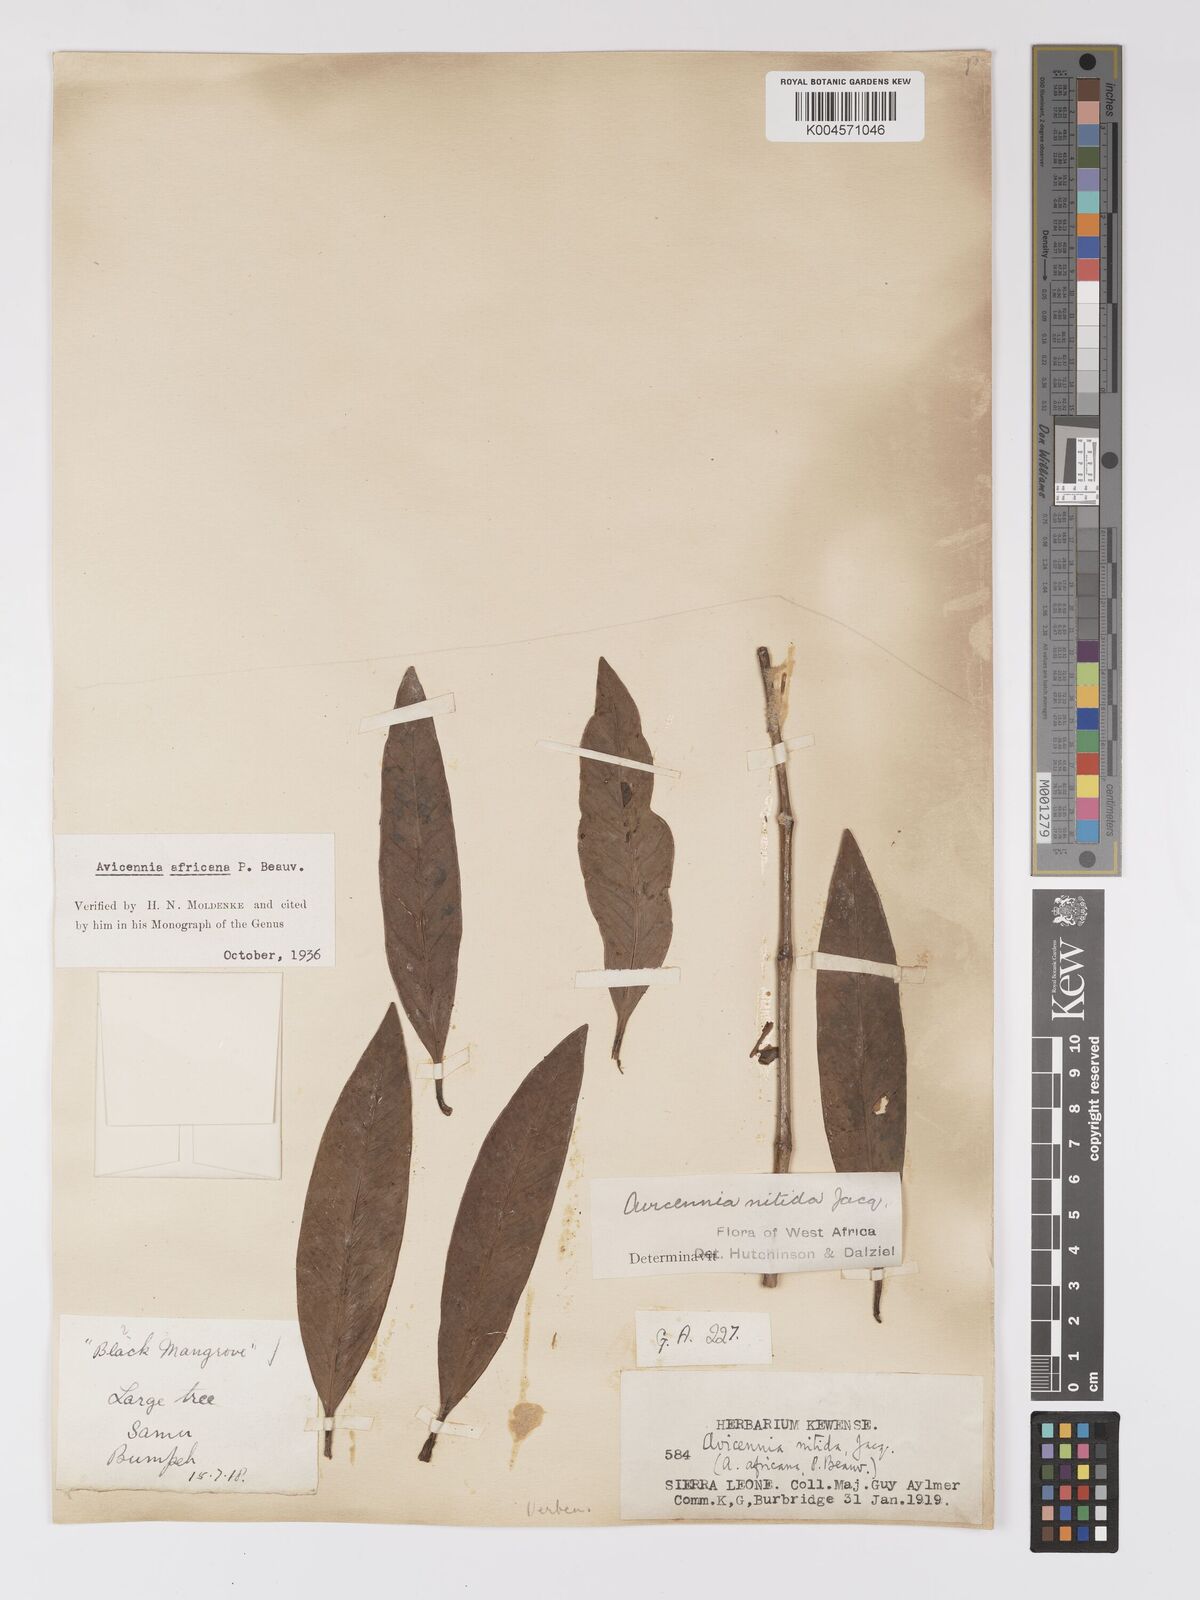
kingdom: Plantae
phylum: Tracheophyta
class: Magnoliopsida
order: Lamiales
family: Acanthaceae
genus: Avicennia
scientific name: Avicennia germinans
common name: Black mangrove
